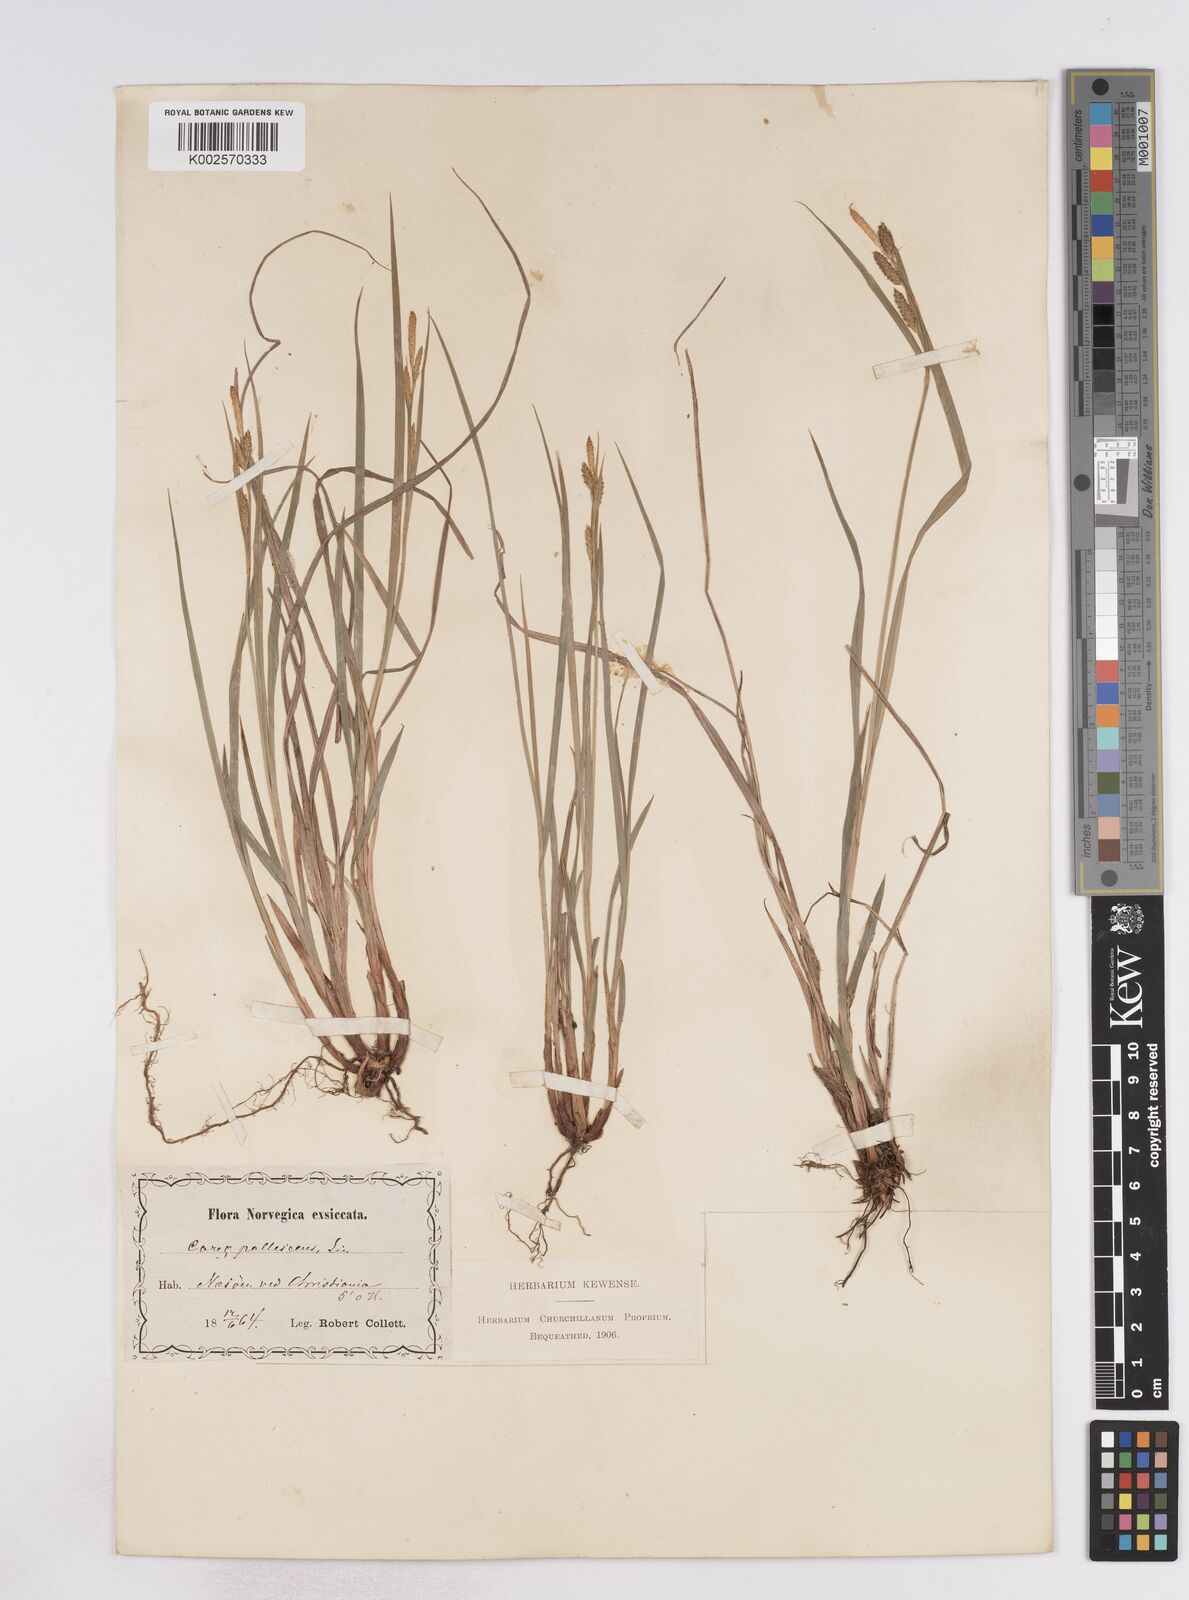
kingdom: Plantae
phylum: Tracheophyta
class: Liliopsida
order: Poales
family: Cyperaceae
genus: Carex
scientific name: Carex pallescens
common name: Pale sedge
